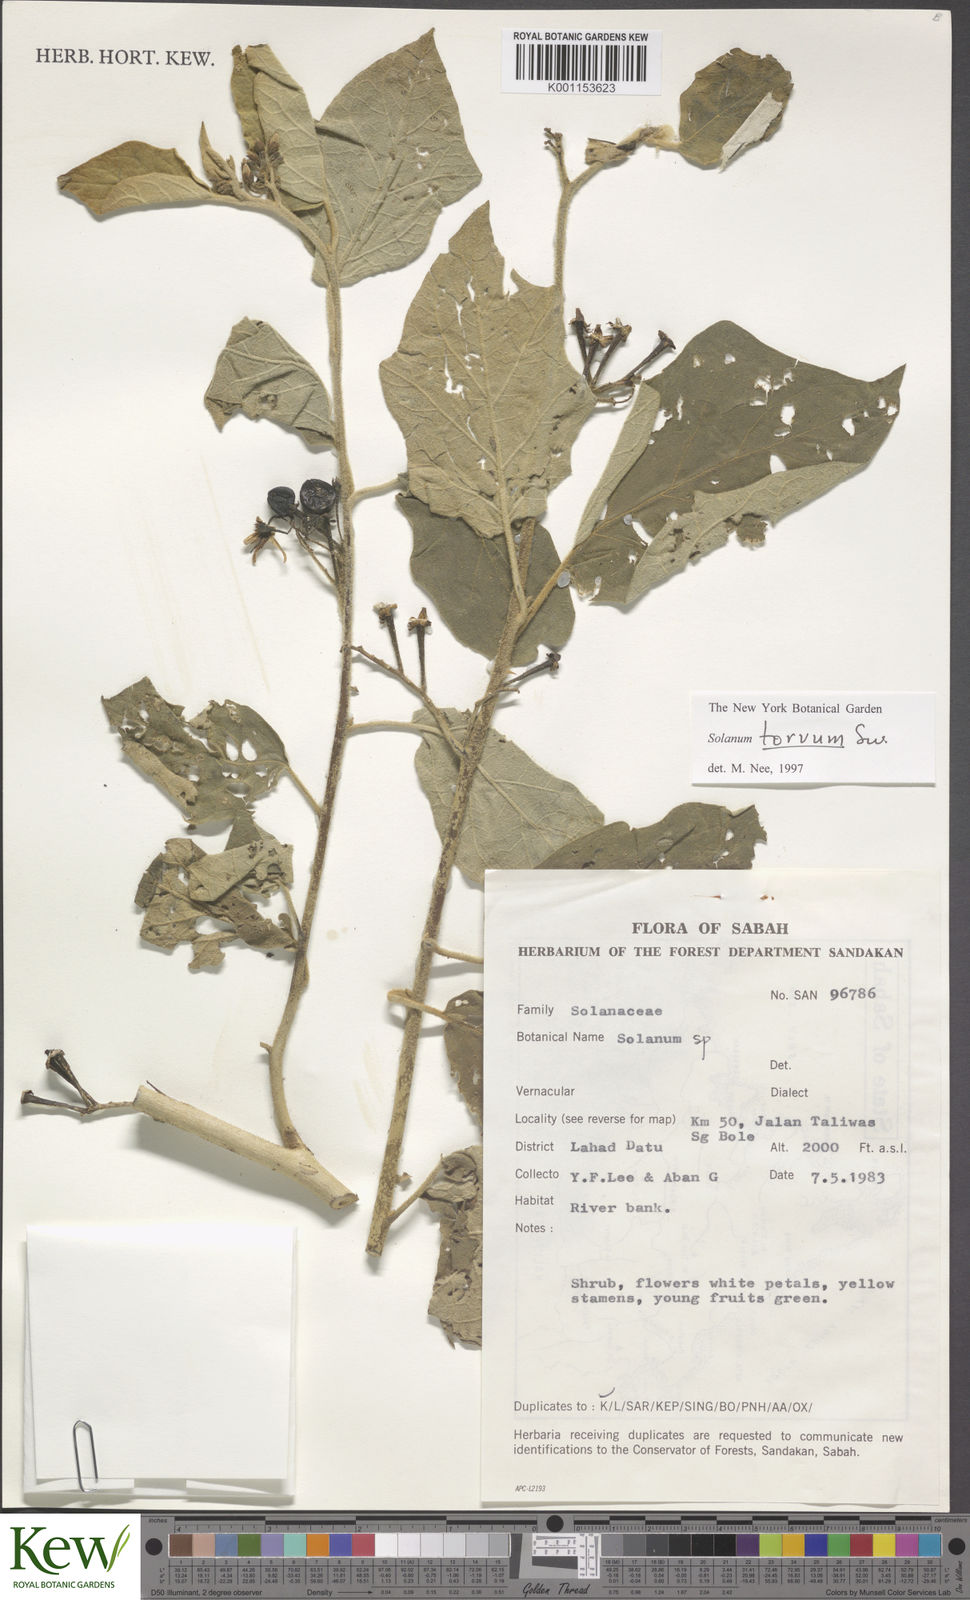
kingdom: Plantae
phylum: Tracheophyta
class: Magnoliopsida
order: Solanales
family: Solanaceae
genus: Solanum
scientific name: Solanum torvum
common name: Turkey berry
